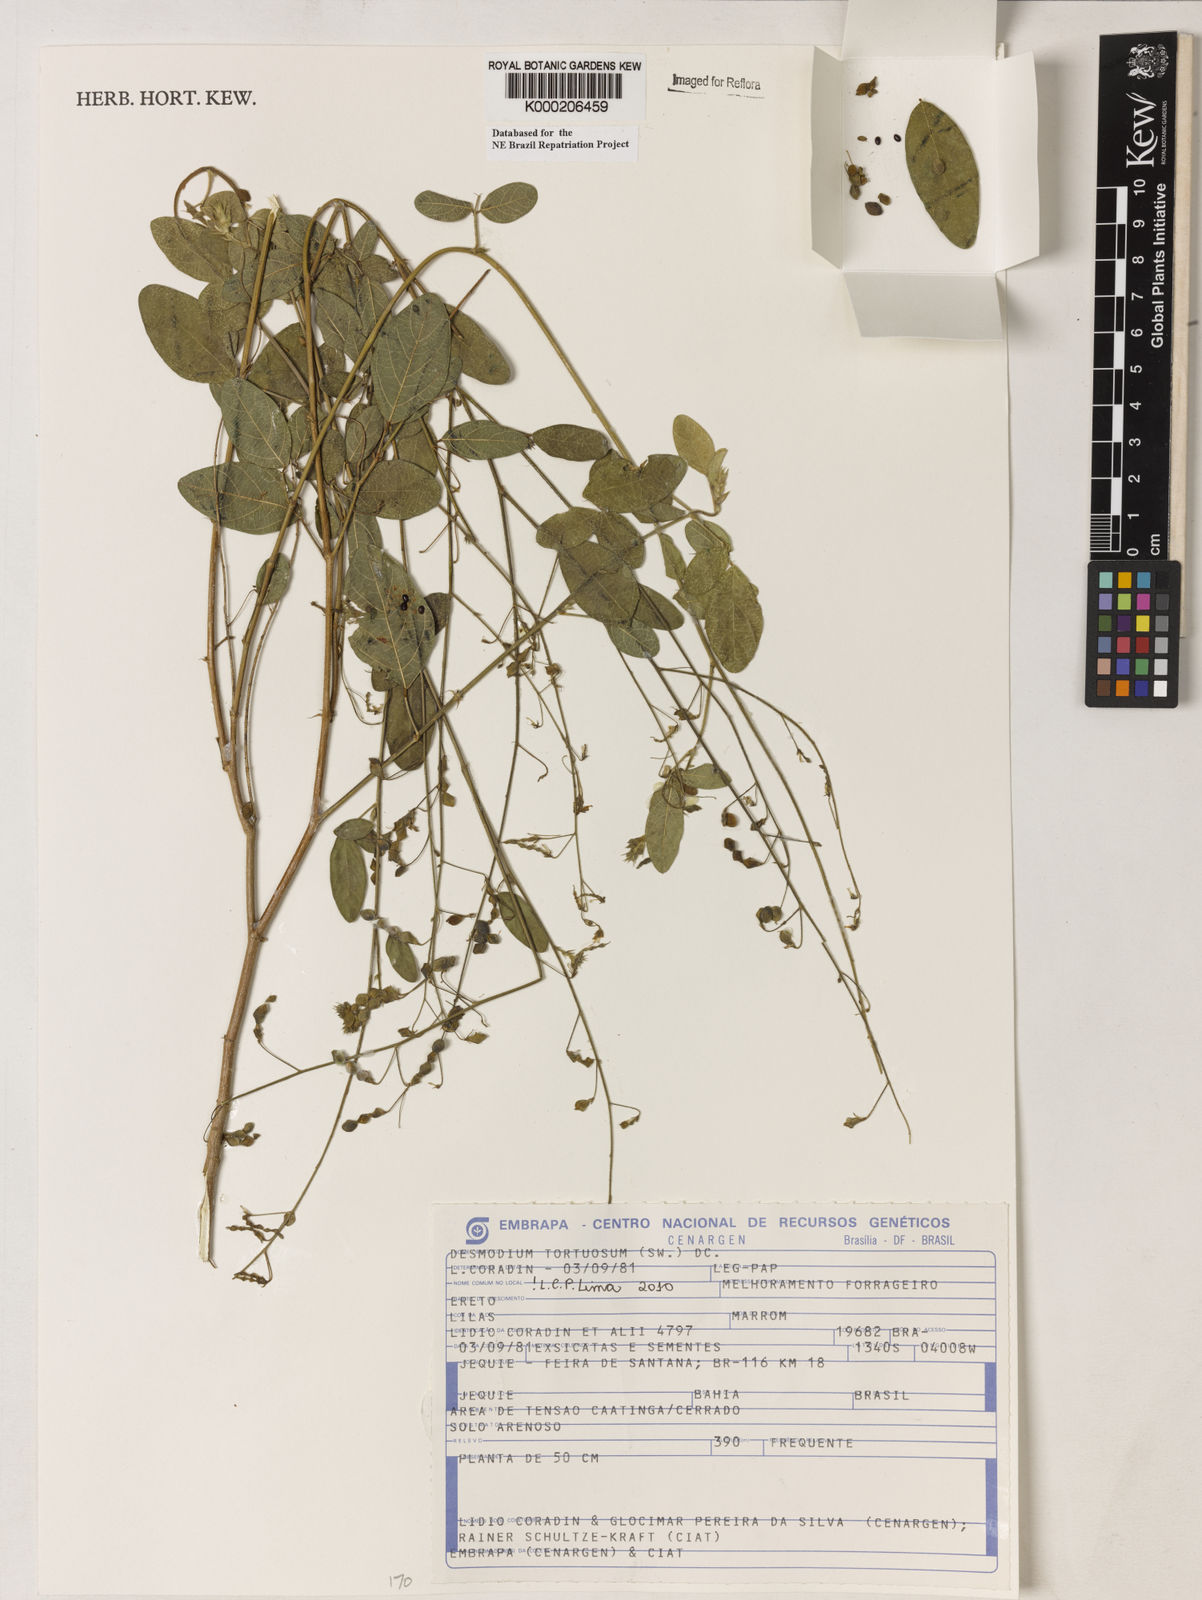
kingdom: Plantae
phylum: Tracheophyta
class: Magnoliopsida
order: Fabales
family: Fabaceae
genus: Desmodium
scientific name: Desmodium tortuosum
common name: Dixie ticktrefoil
